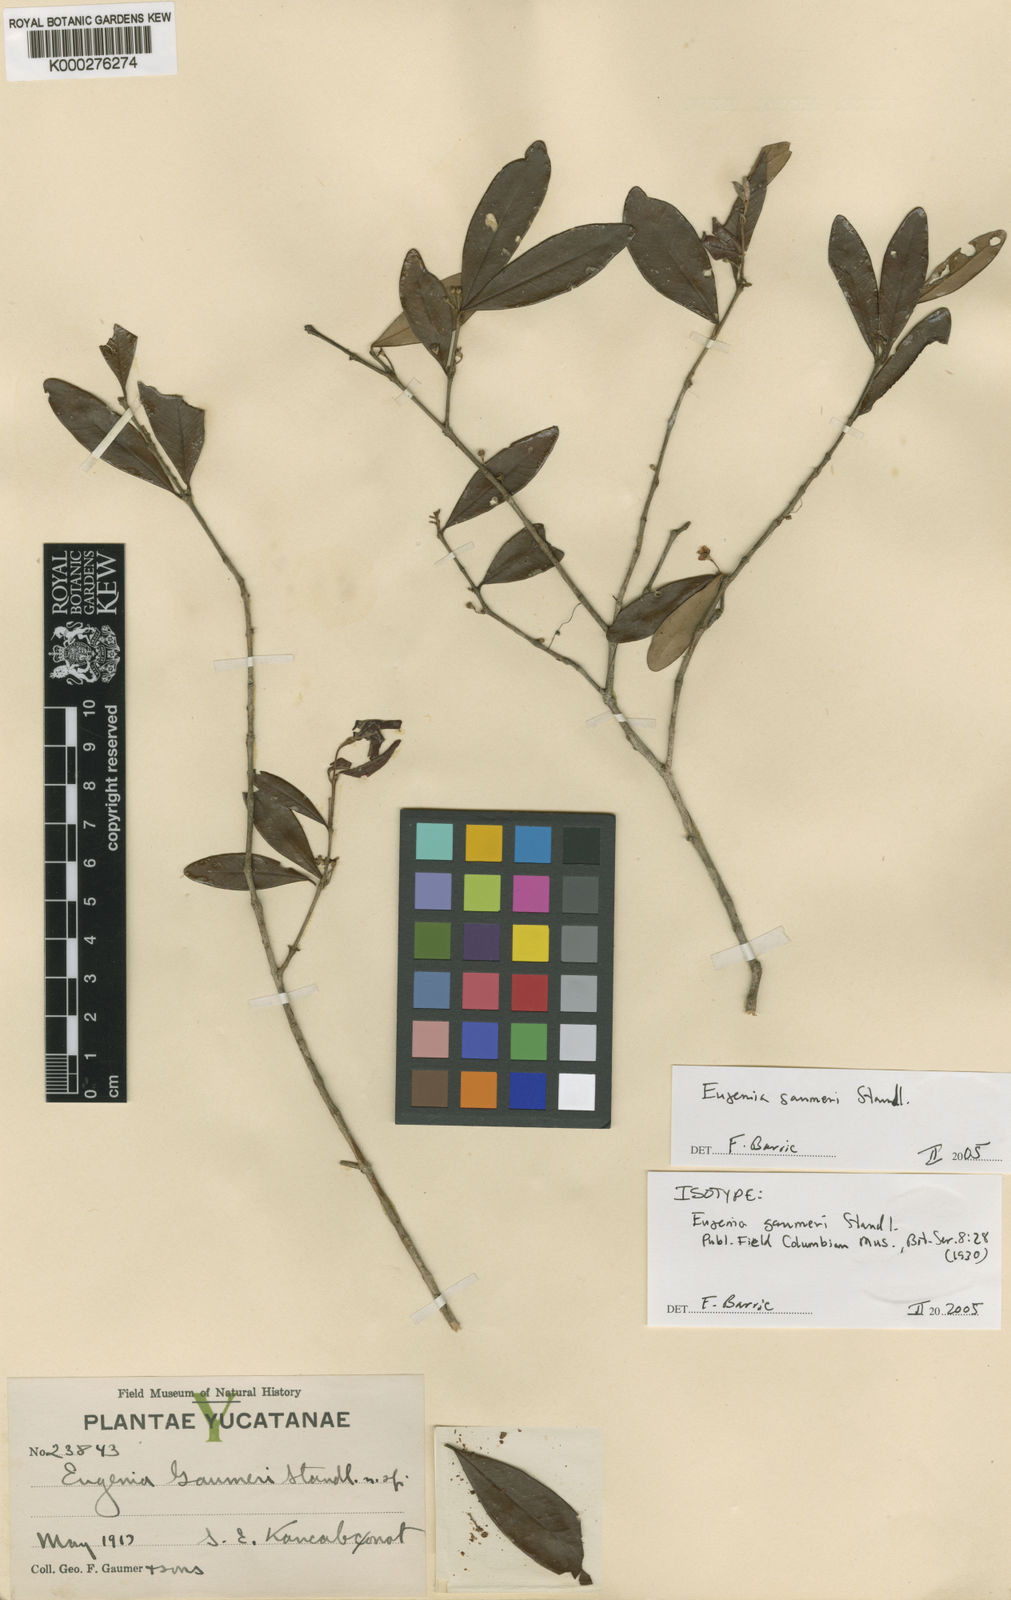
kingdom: Plantae
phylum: Tracheophyta
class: Magnoliopsida
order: Myrtales
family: Myrtaceae
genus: Eugenia
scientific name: Eugenia gaumeri
